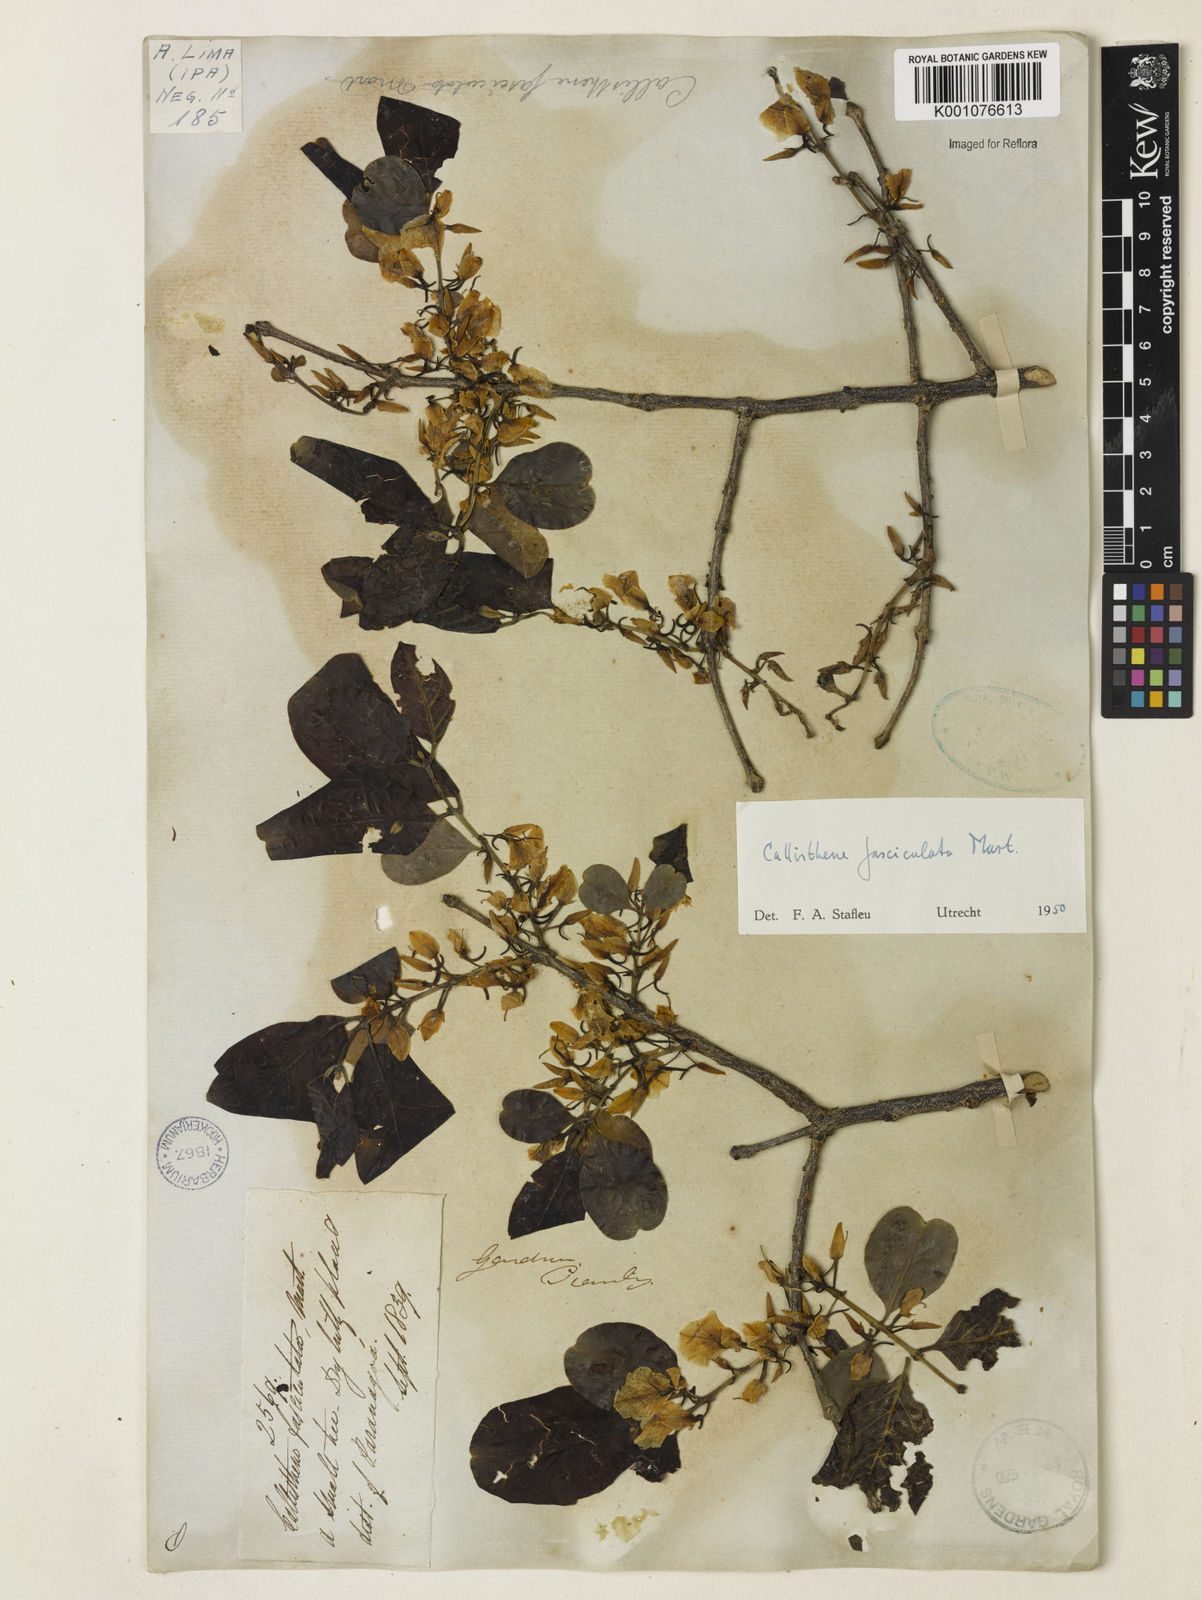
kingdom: Plantae
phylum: Tracheophyta
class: Magnoliopsida
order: Myrtales
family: Vochysiaceae
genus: Callisthene
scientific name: Callisthene fasciculata
